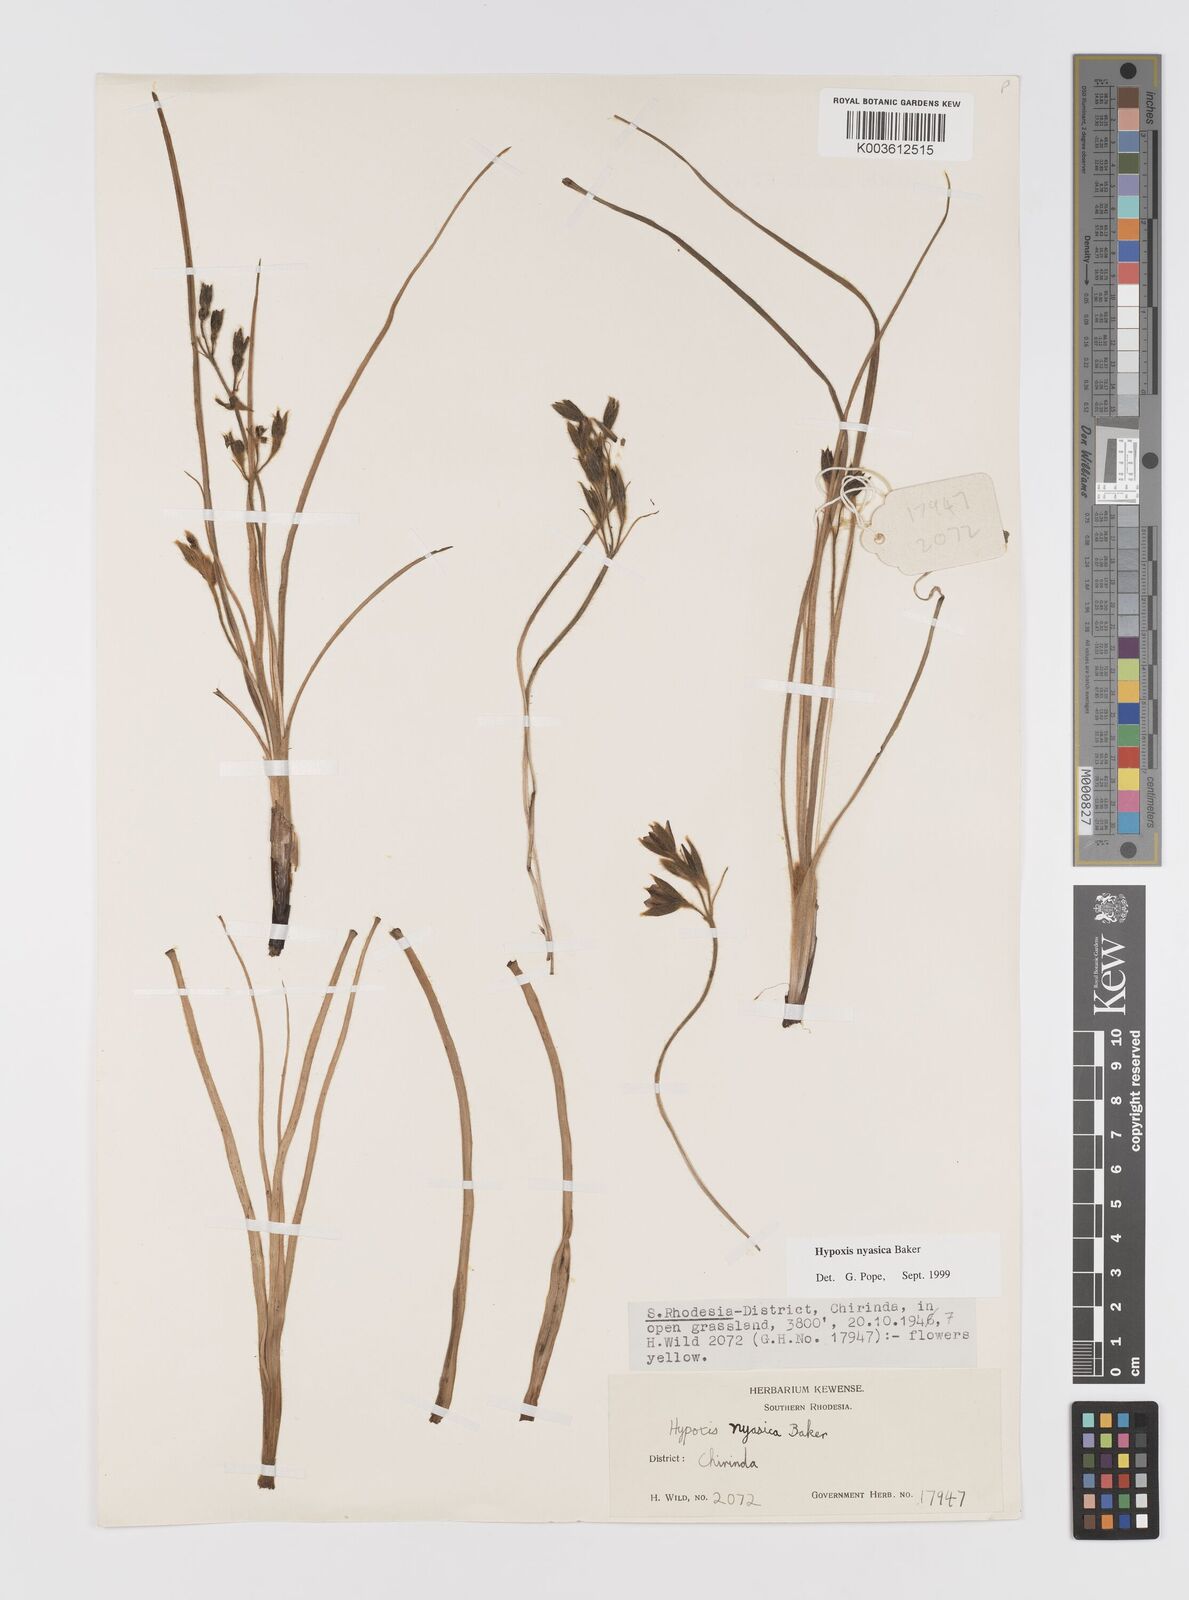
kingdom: Plantae
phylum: Tracheophyta
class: Liliopsida
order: Asparagales
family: Hypoxidaceae
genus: Hypoxis
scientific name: Hypoxis nyasica
